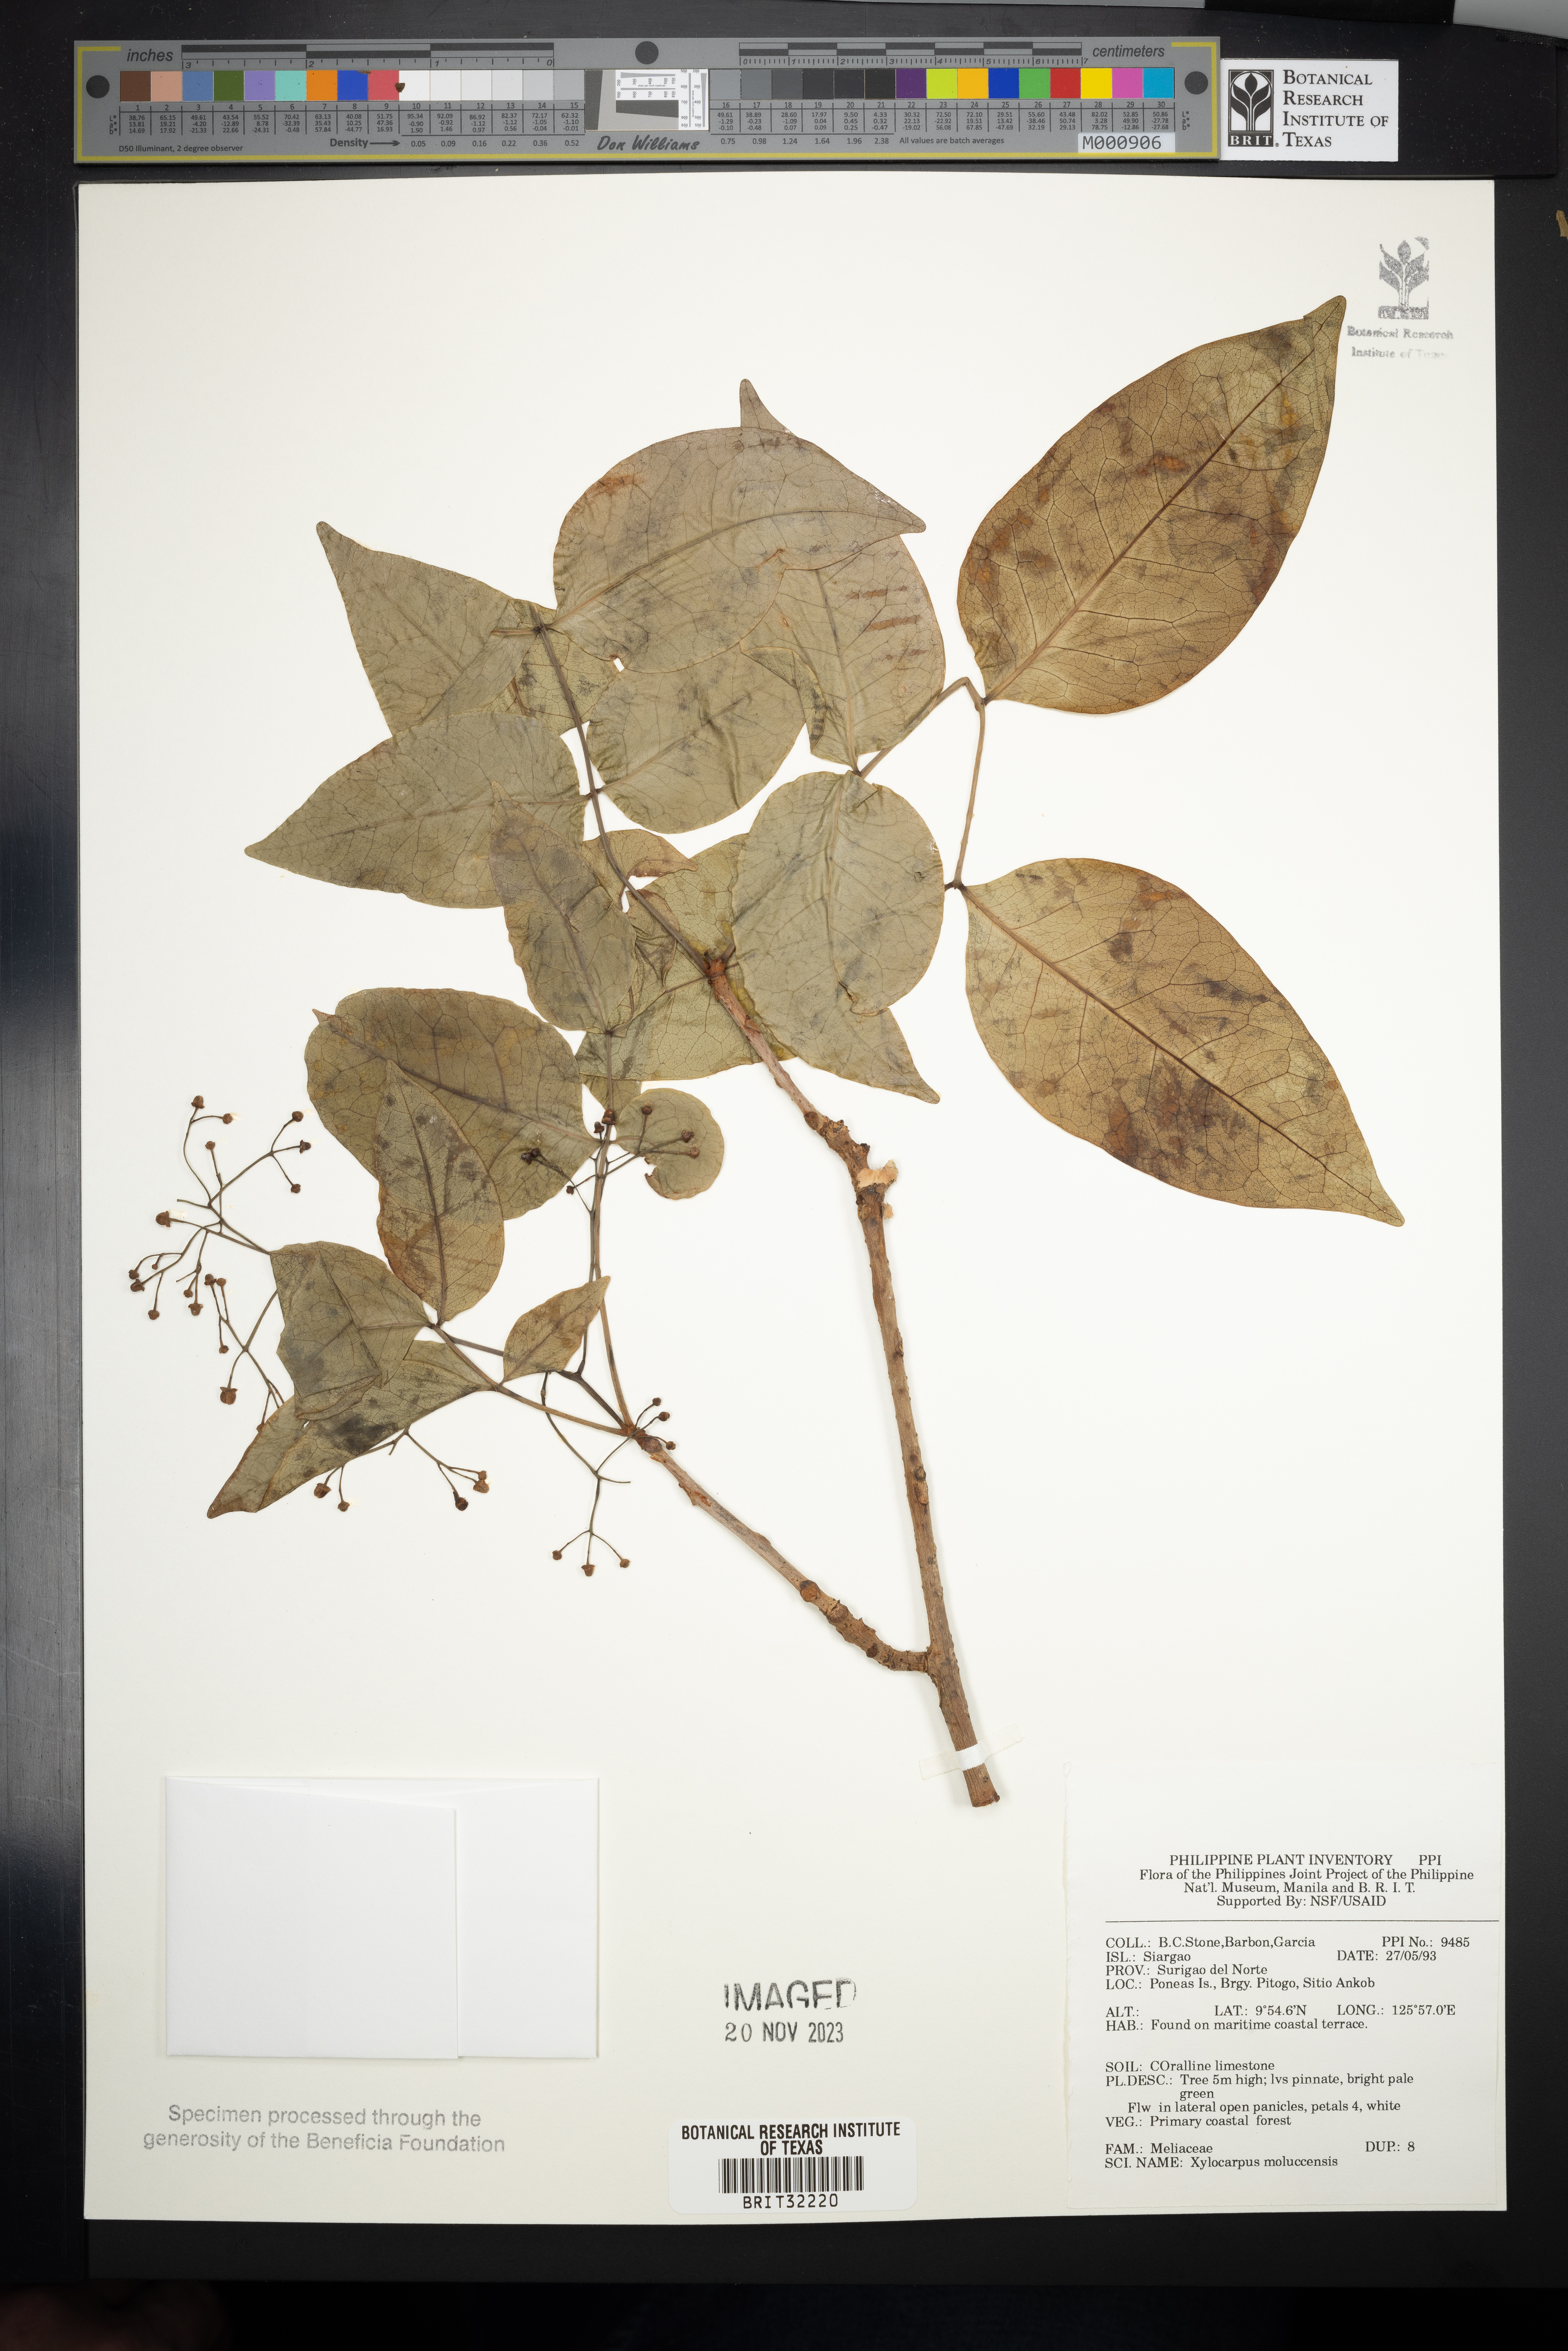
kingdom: Plantae
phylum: Tracheophyta
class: Magnoliopsida
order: Sapindales
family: Meliaceae
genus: Xylocarpus
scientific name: Xylocarpus moluccensis
